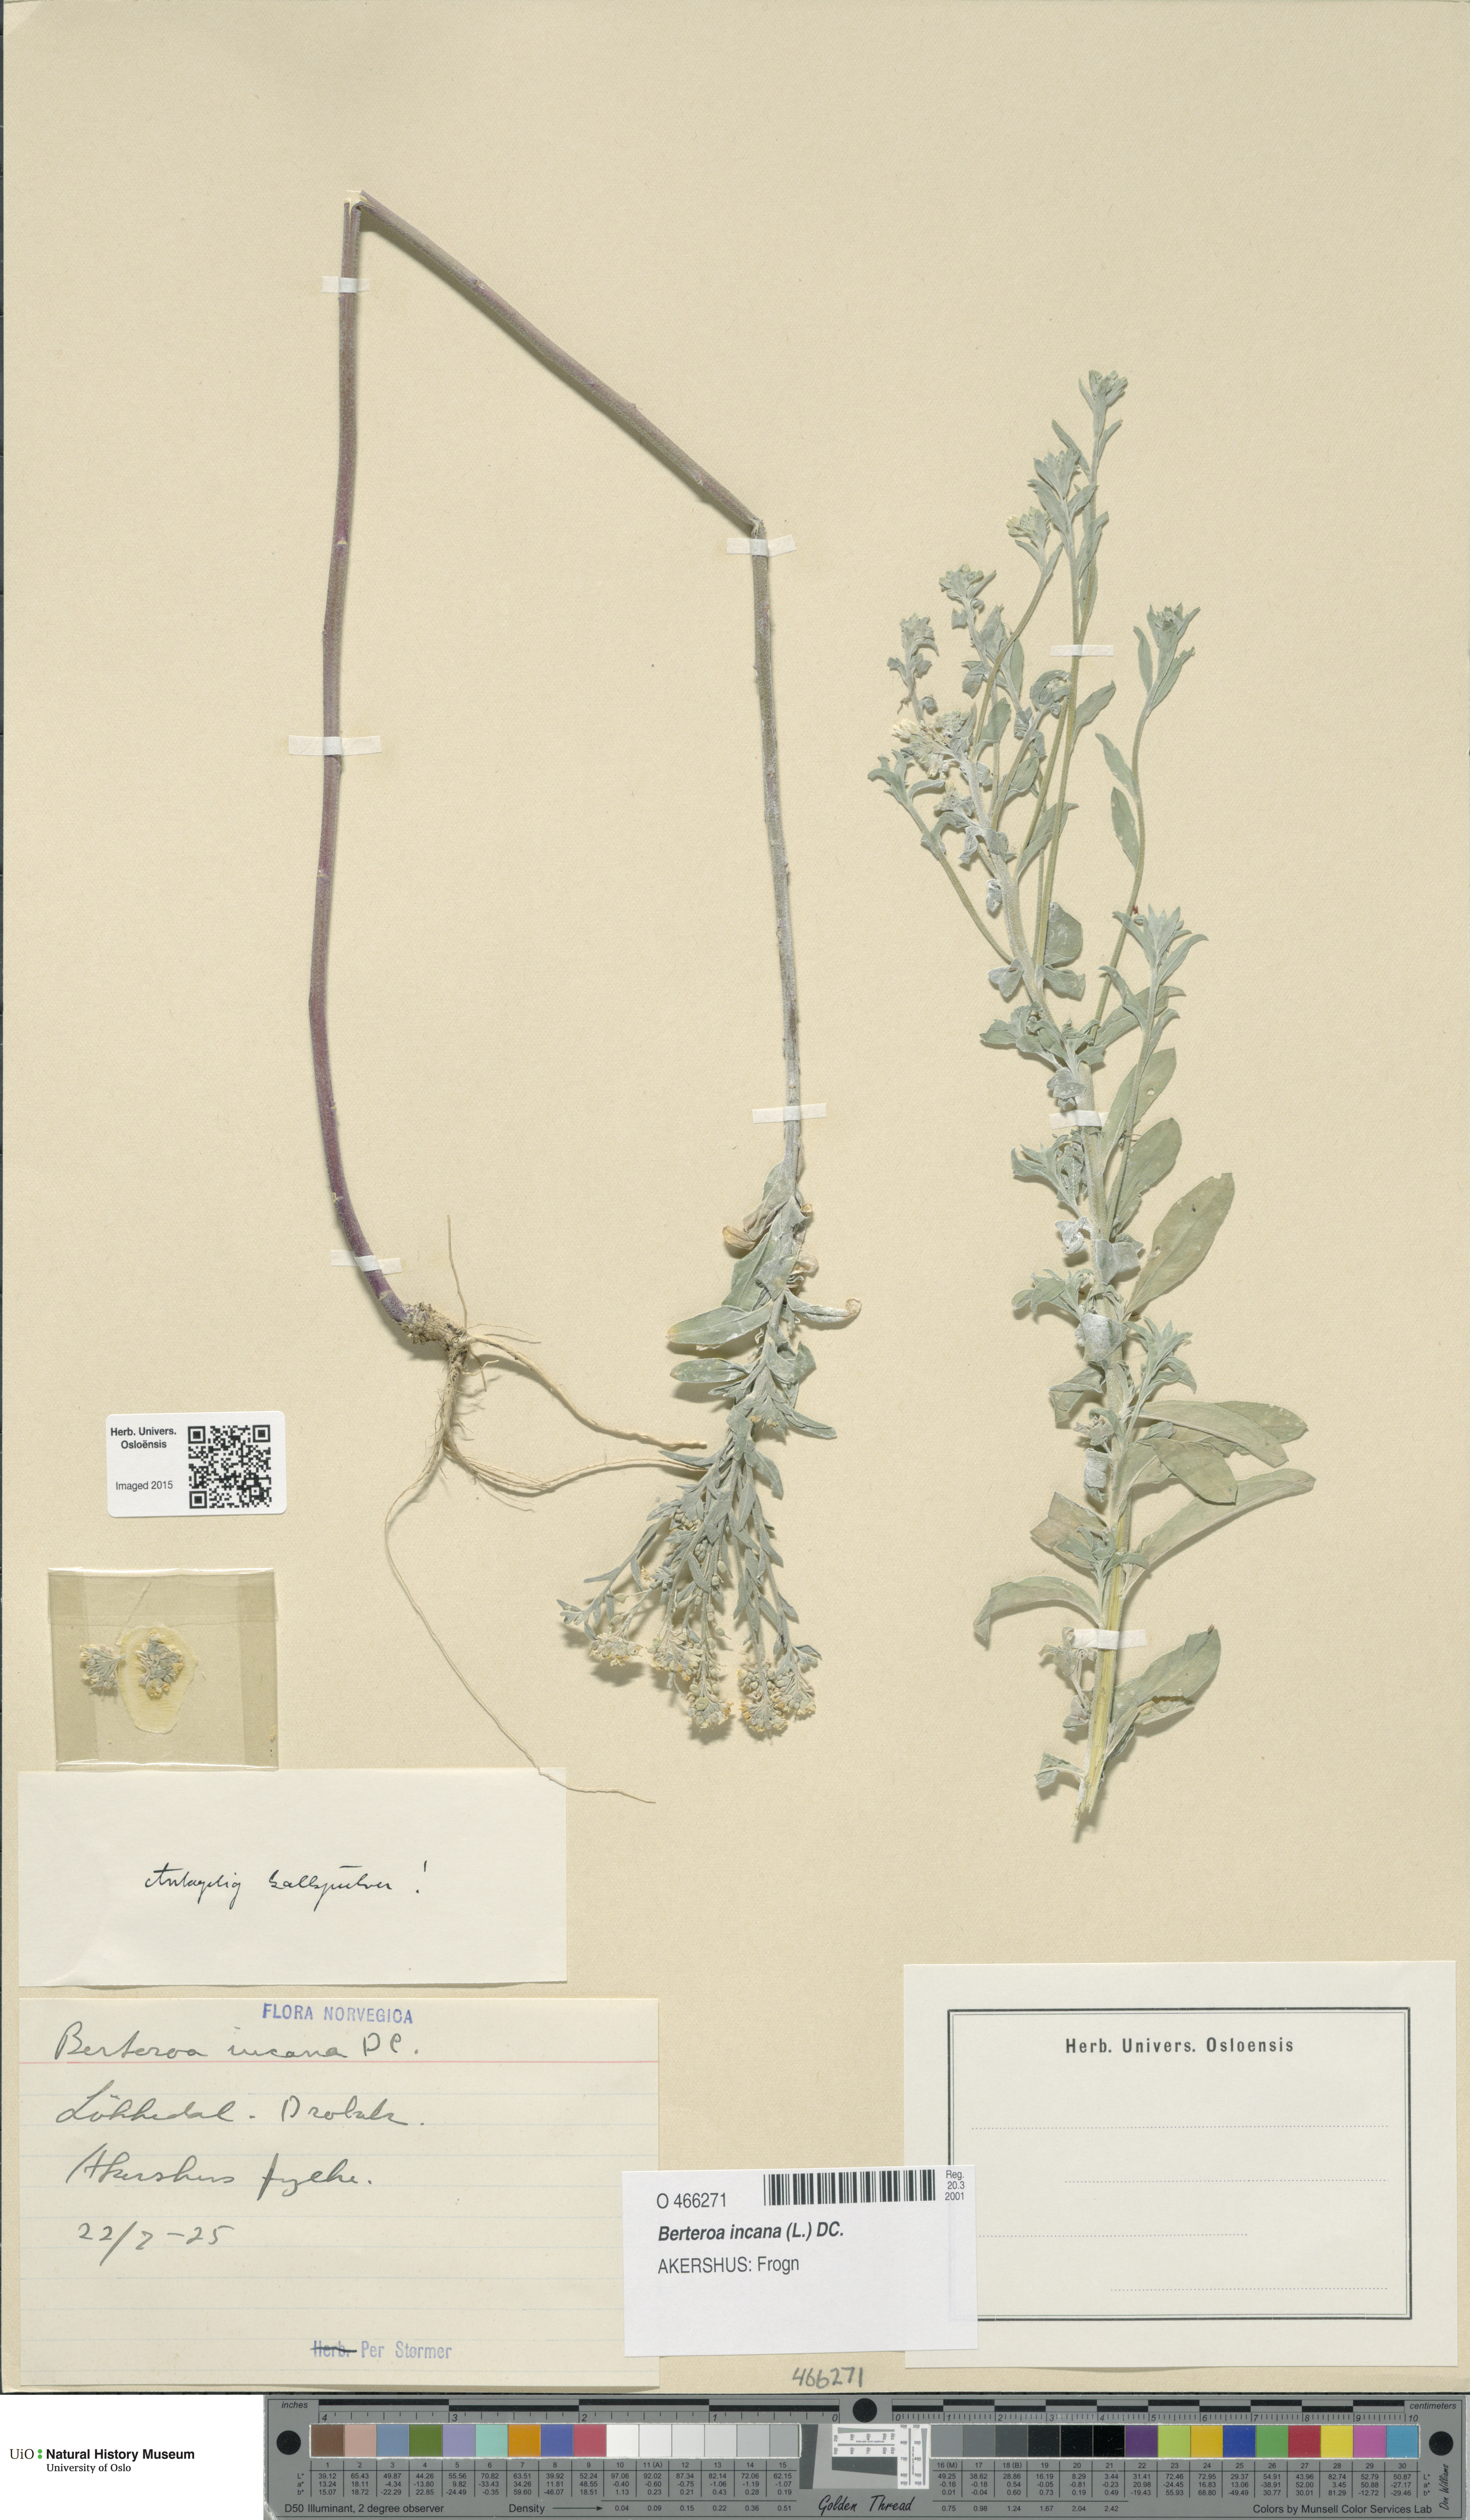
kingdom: Plantae
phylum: Tracheophyta
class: Magnoliopsida
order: Brassicales
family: Brassicaceae
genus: Berteroa
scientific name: Berteroa incana
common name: Hoary alison
